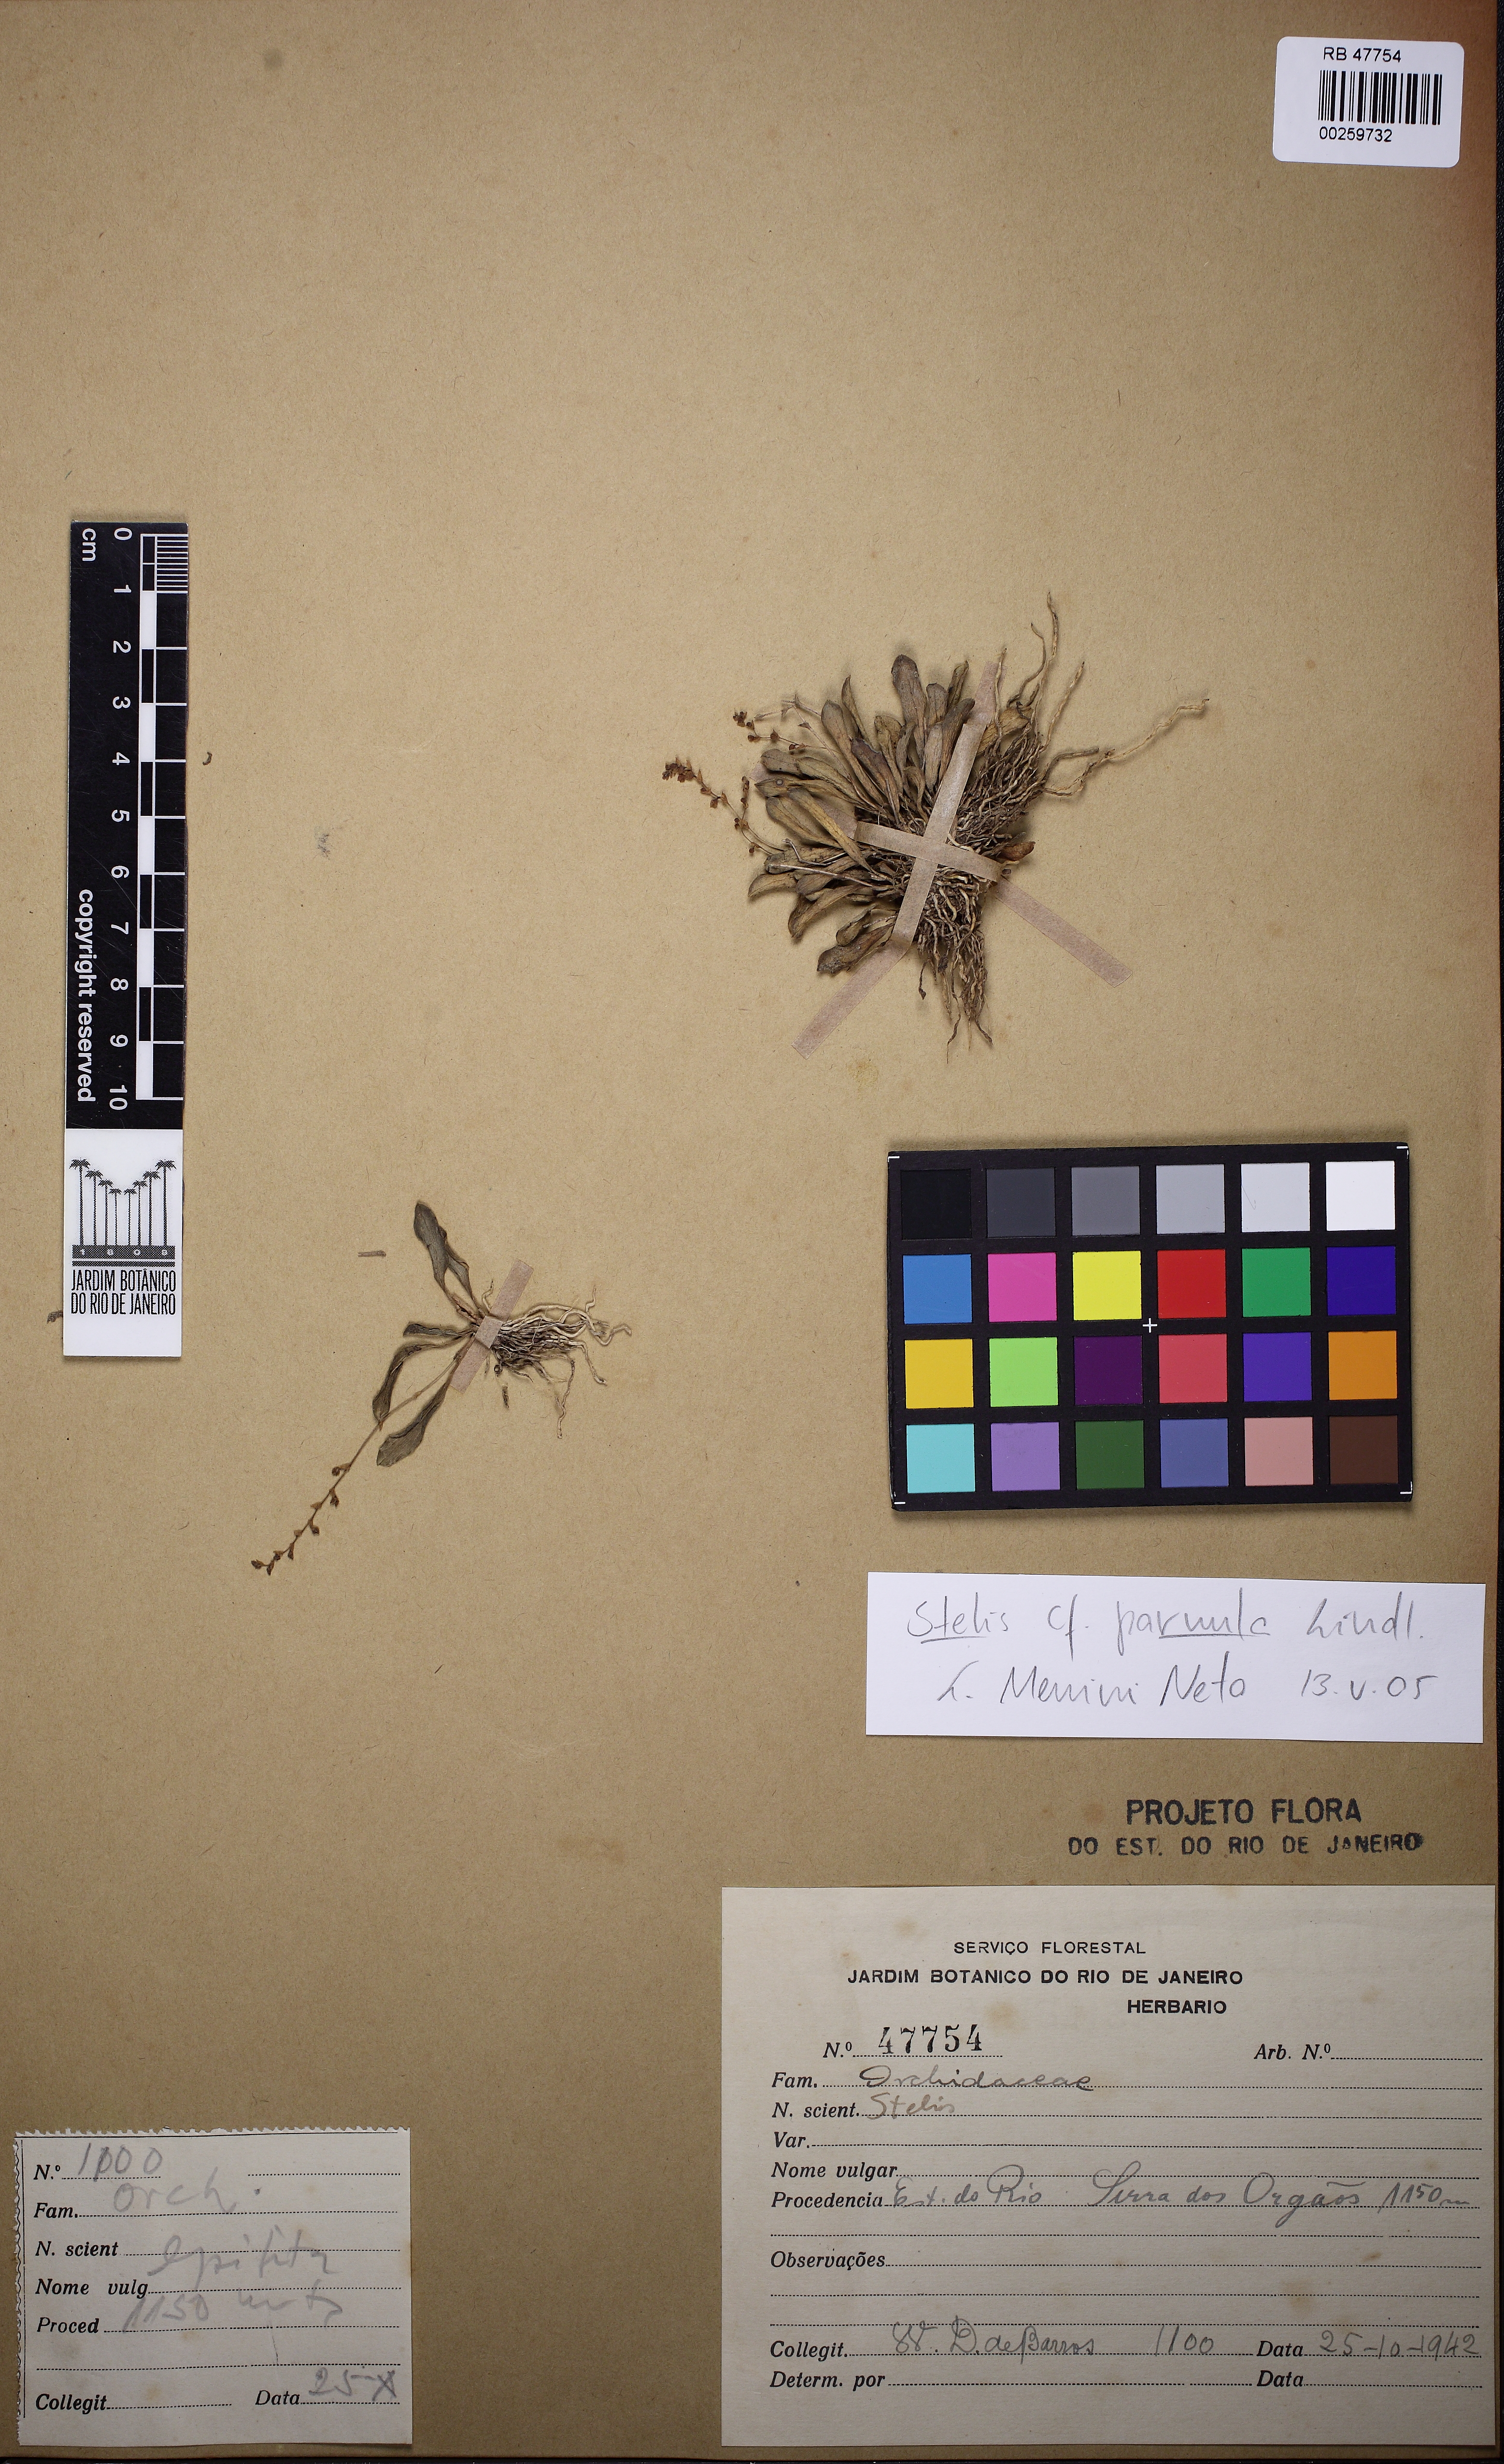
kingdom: Plantae
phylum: Tracheophyta
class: Liliopsida
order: Asparagales
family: Orchidaceae
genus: Stelis
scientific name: Stelis parvula
